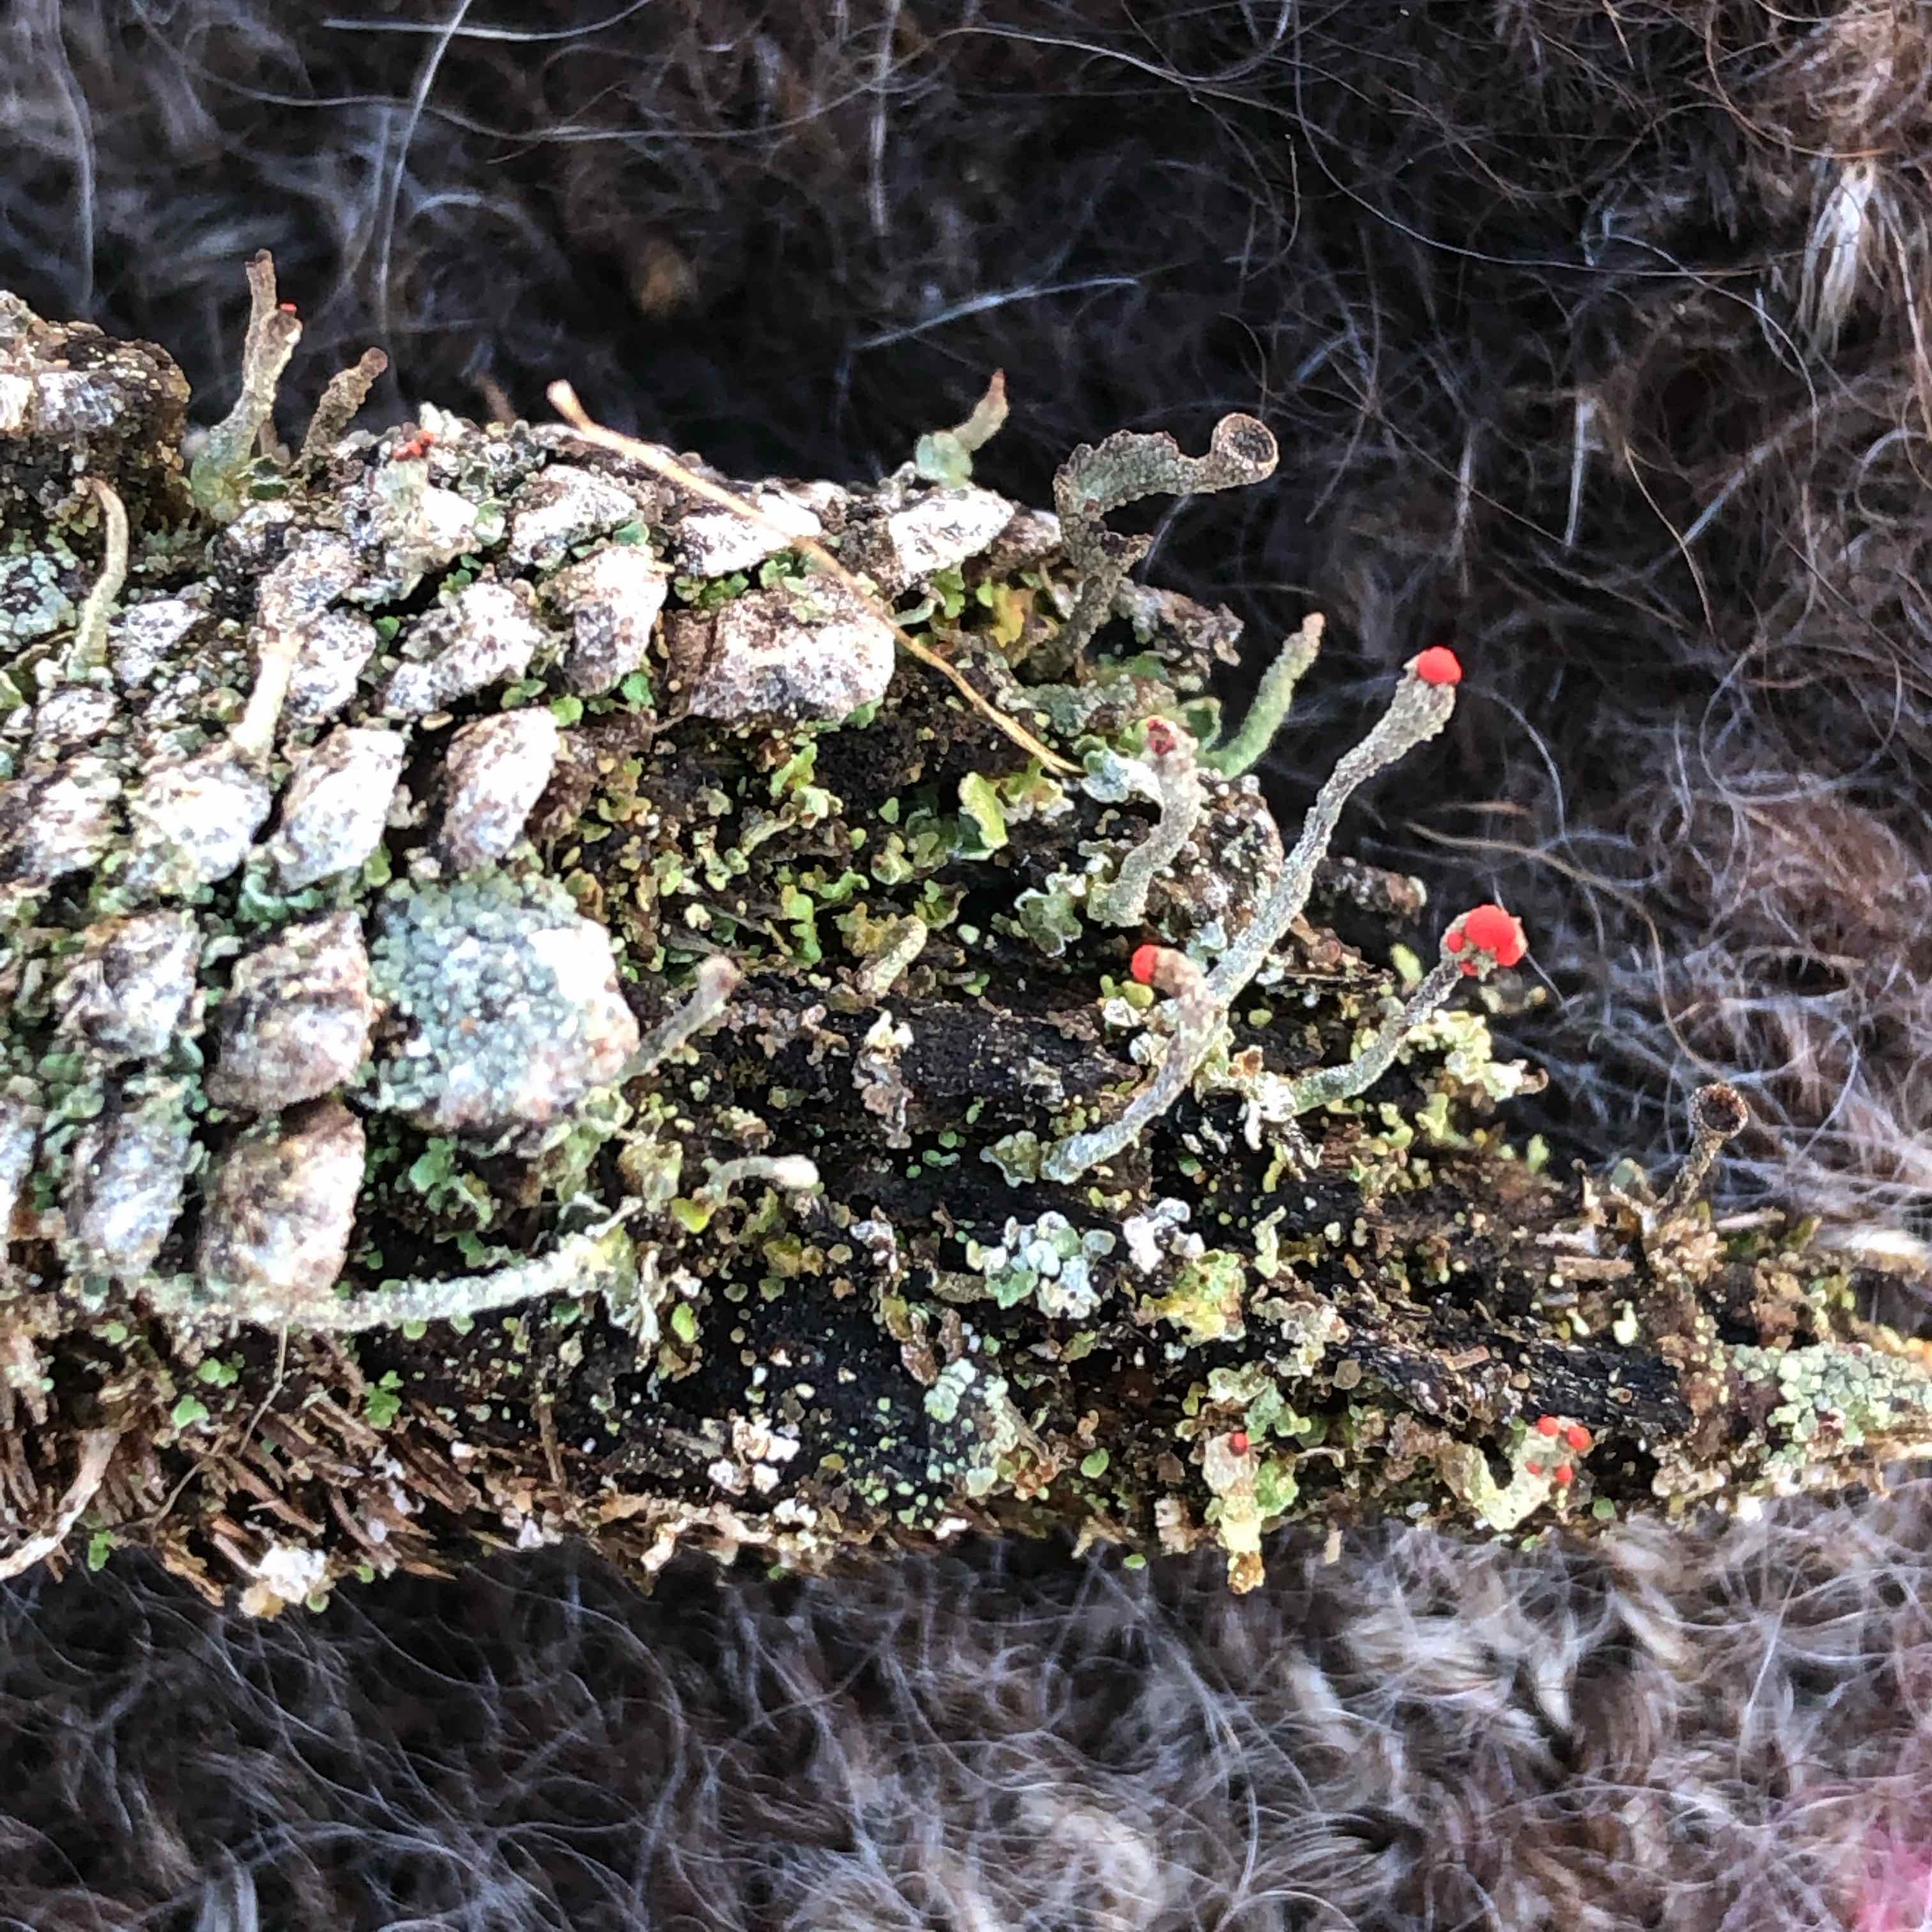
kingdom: Fungi
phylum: Ascomycota
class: Lecanoromycetes
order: Lecanorales
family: Cladoniaceae
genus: Cladonia
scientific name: Cladonia floerkeana
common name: lakrød bægerlav
